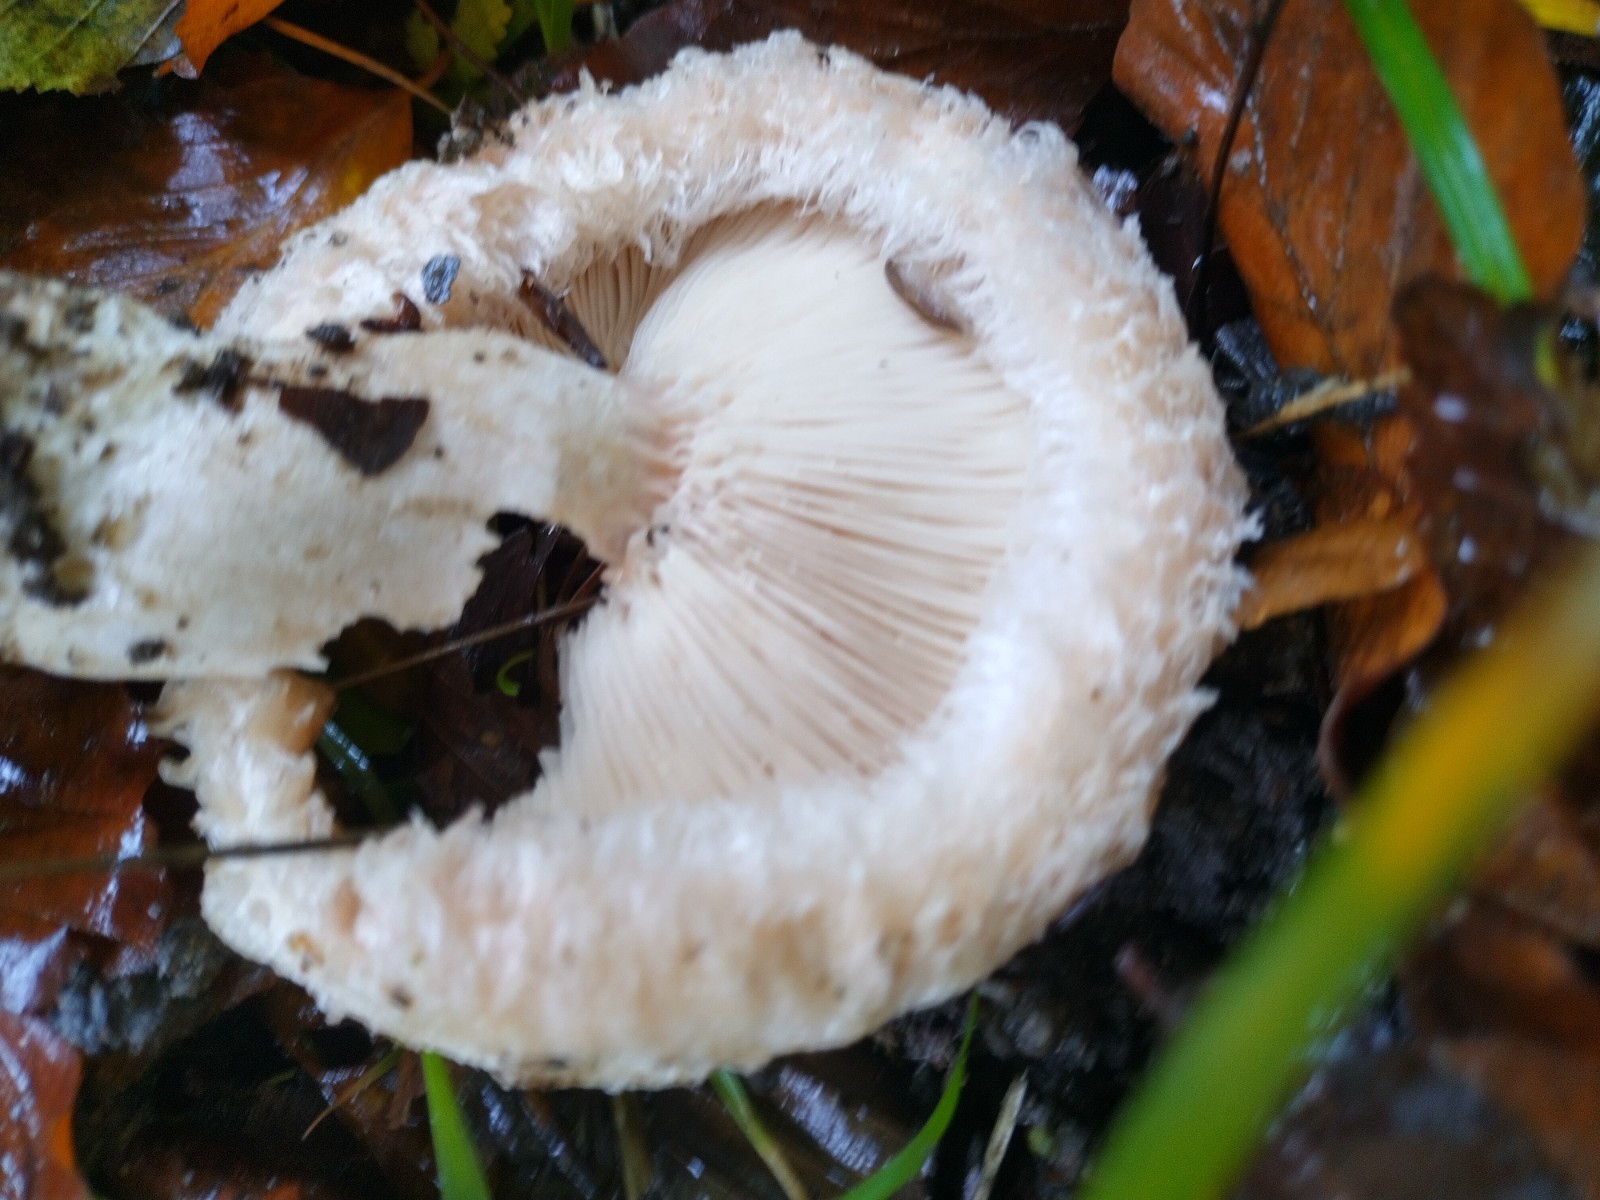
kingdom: Fungi
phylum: Basidiomycota
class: Agaricomycetes
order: Russulales
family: Russulaceae
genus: Lactarius
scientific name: Lactarius torminosus
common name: skægget mælkehat
